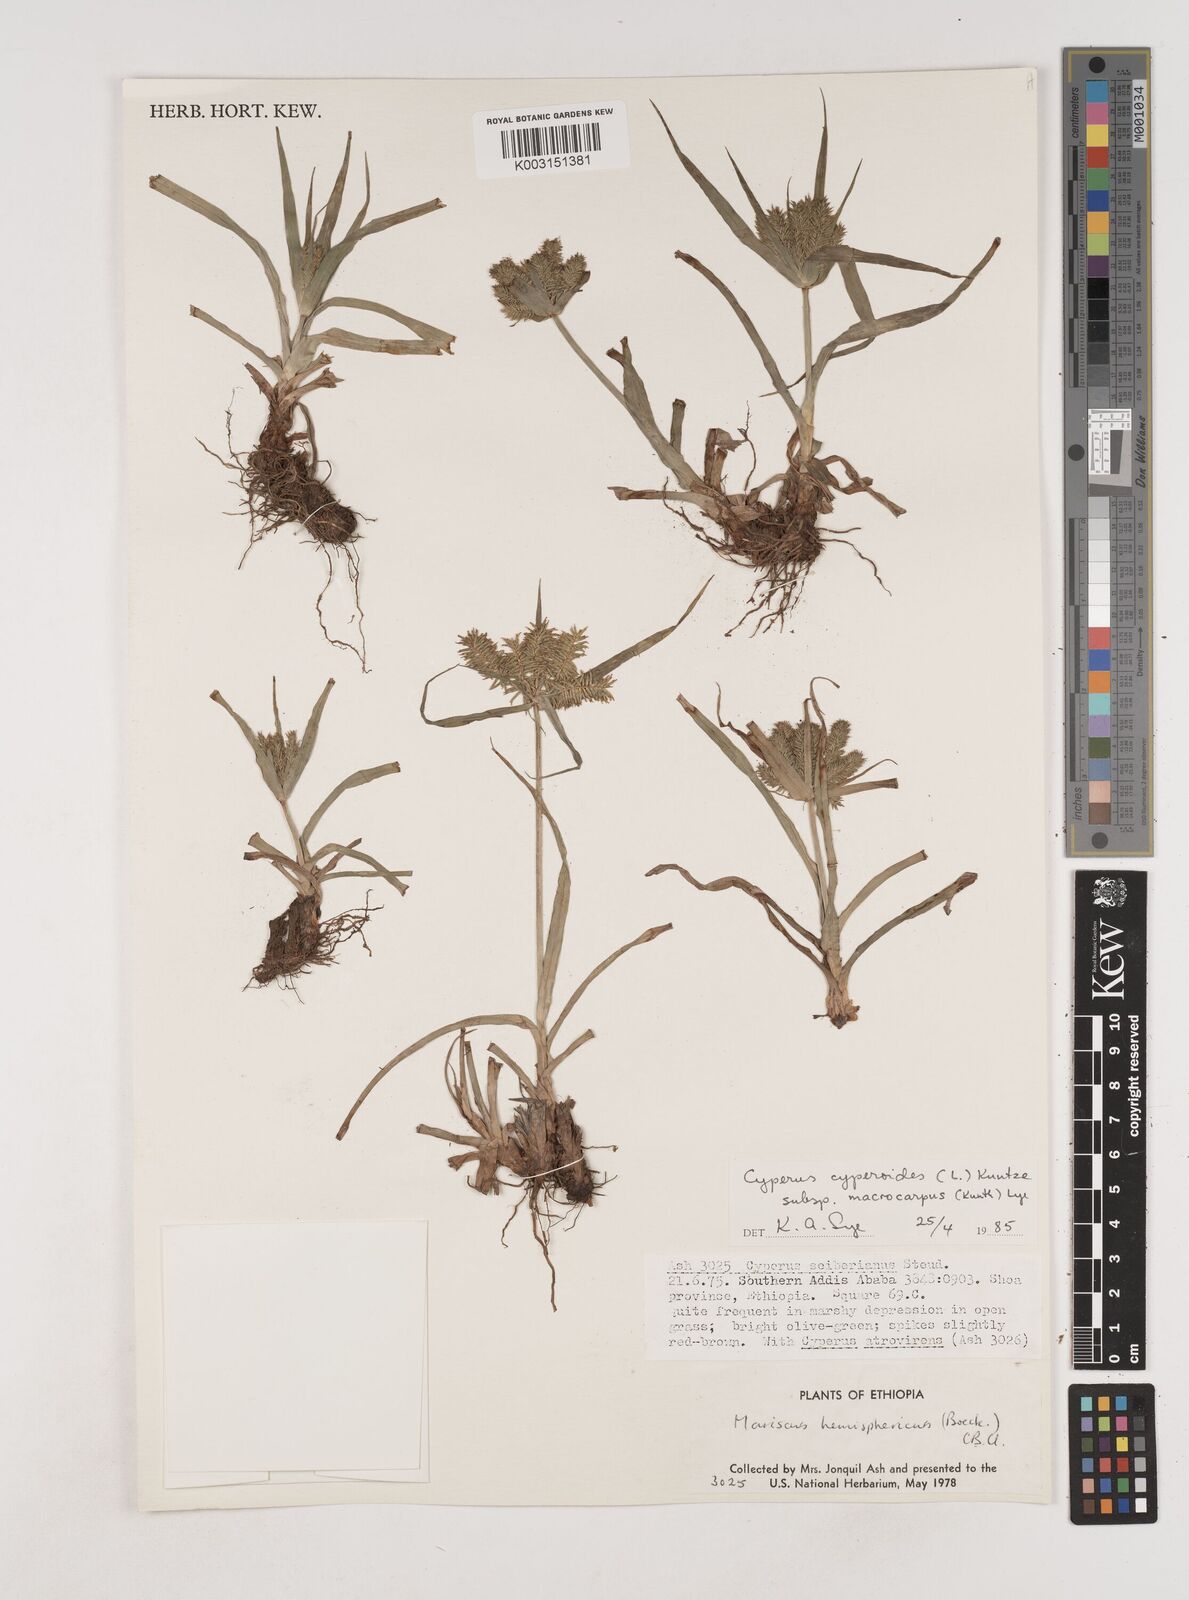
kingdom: Plantae
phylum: Tracheophyta
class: Liliopsida
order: Poales
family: Cyperaceae
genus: Cyperus
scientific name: Cyperus macrocarpus
